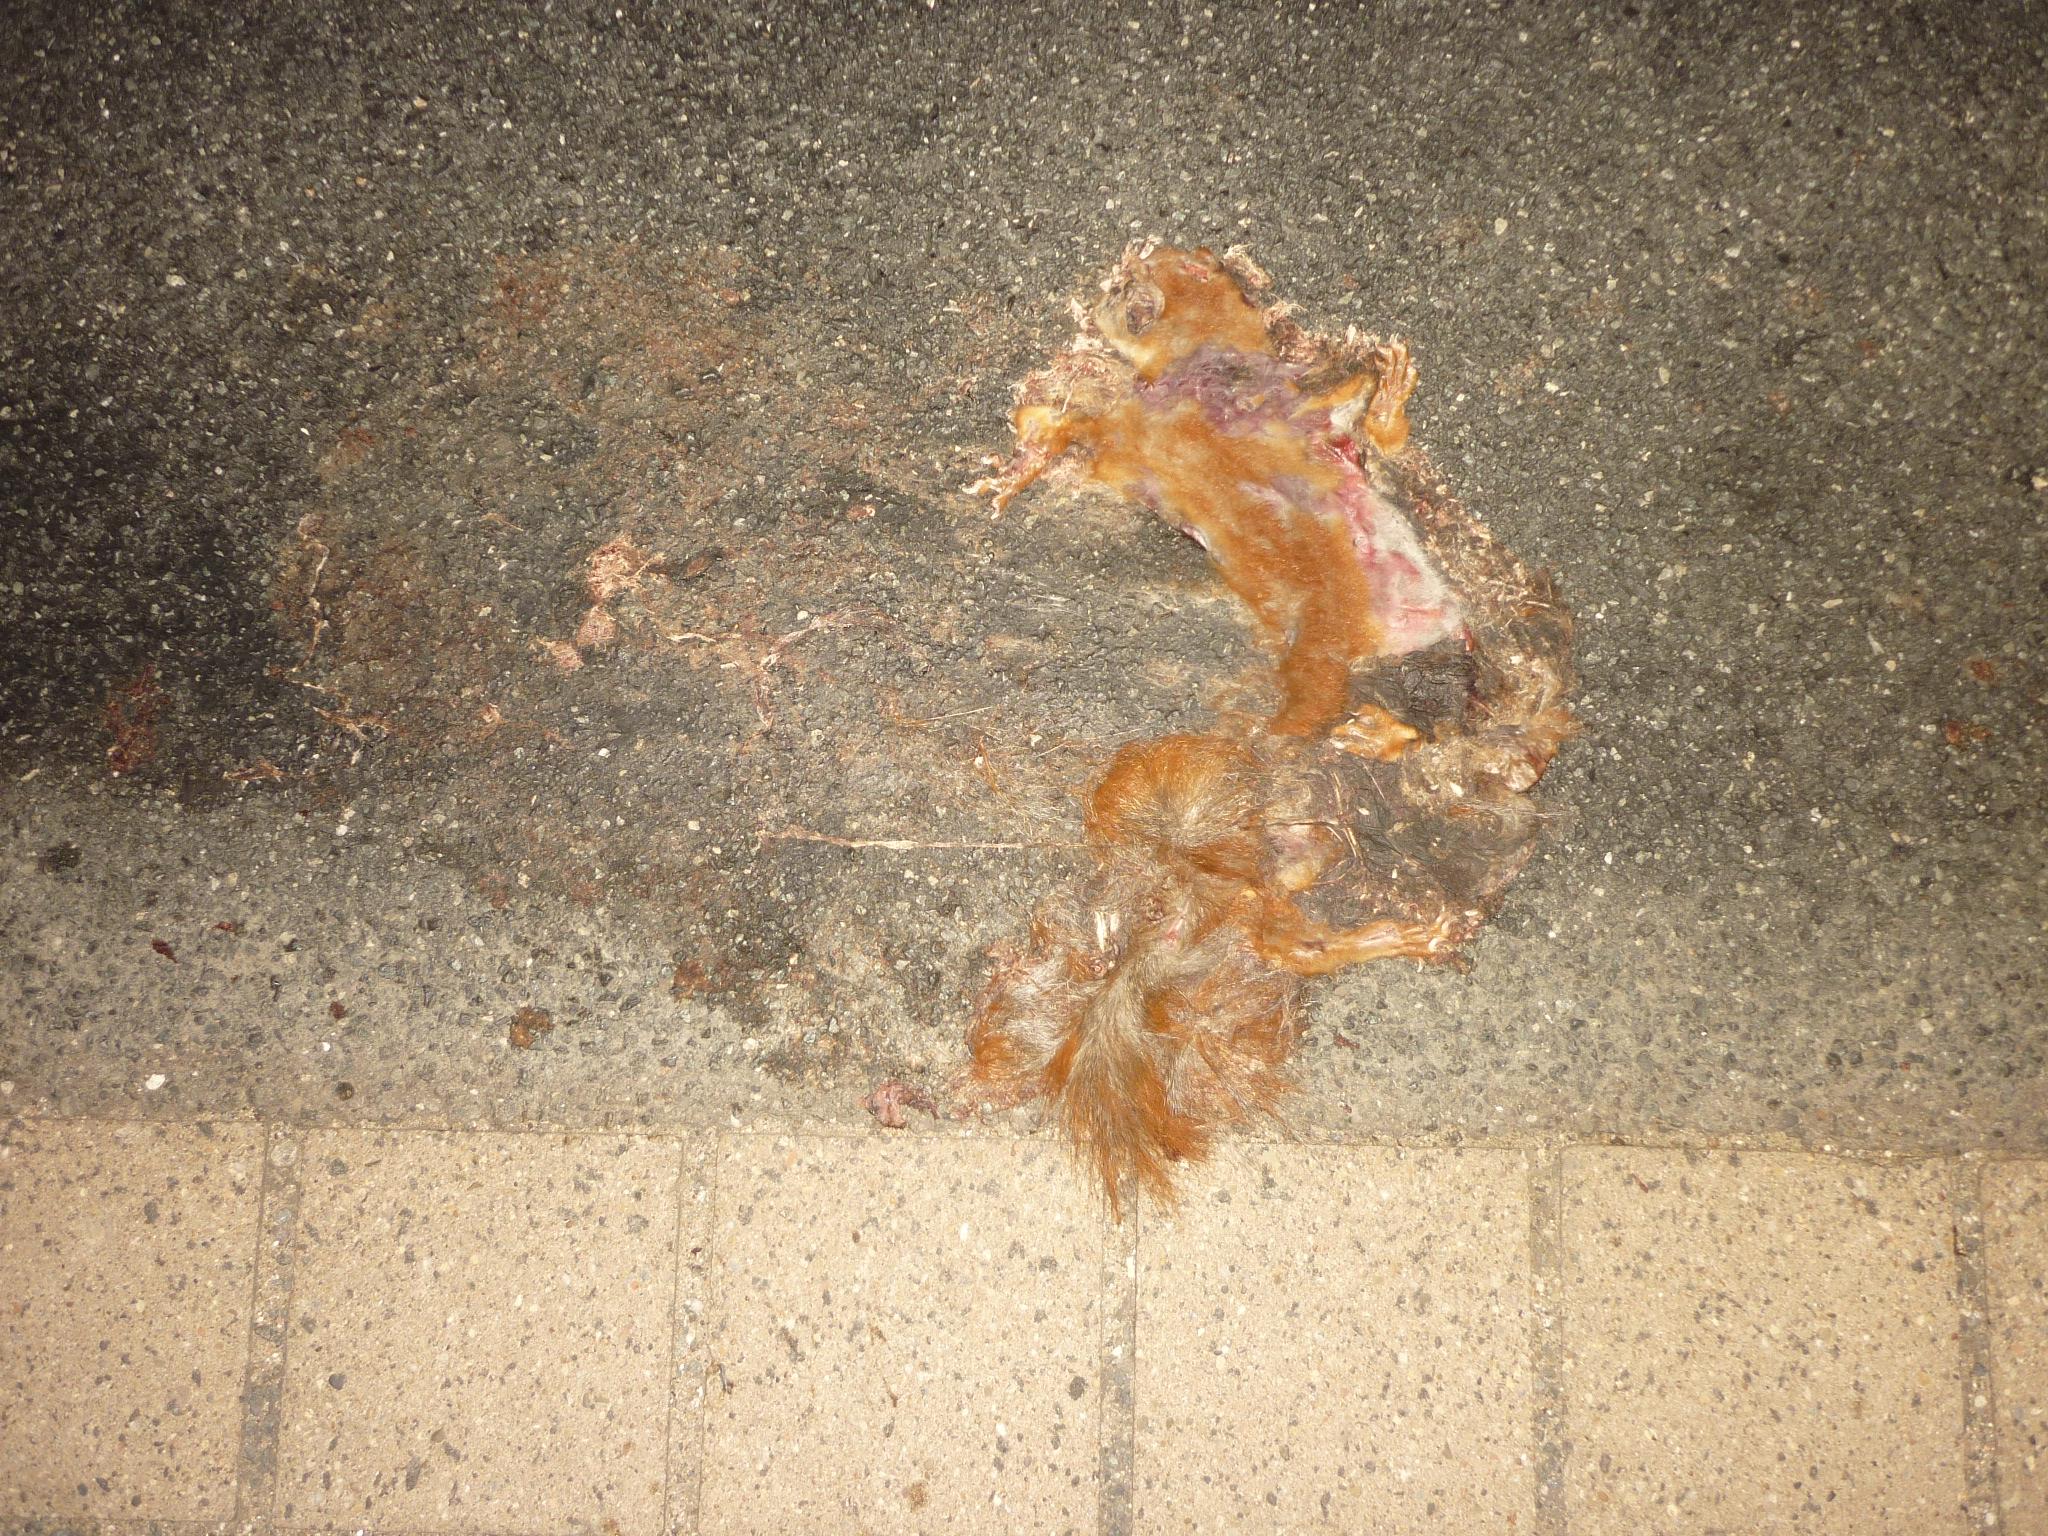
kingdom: Animalia
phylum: Chordata
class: Mammalia
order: Rodentia
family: Sciuridae
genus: Sciurus
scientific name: Sciurus vulgaris
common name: Eurasian red squirrel
